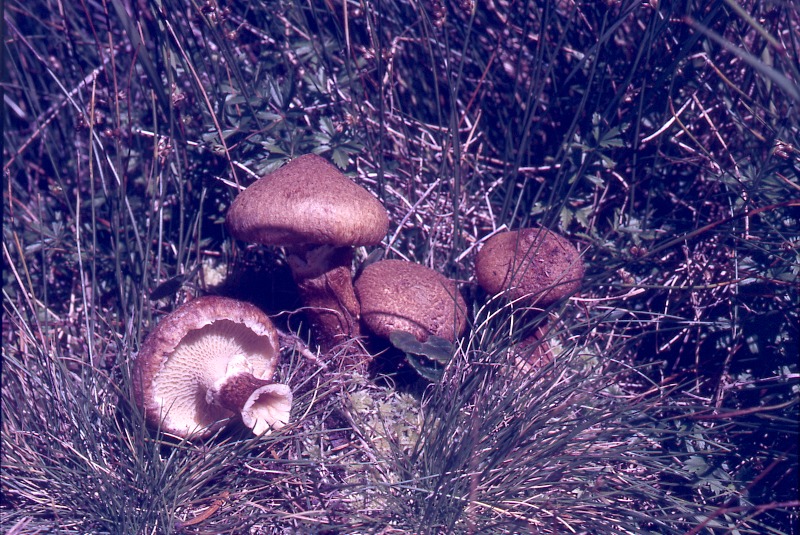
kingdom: Fungi
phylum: Basidiomycota
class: Agaricomycetes
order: Boletales
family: Suillaceae
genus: Suillus
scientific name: Suillus cavipes
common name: Hollow bolete
